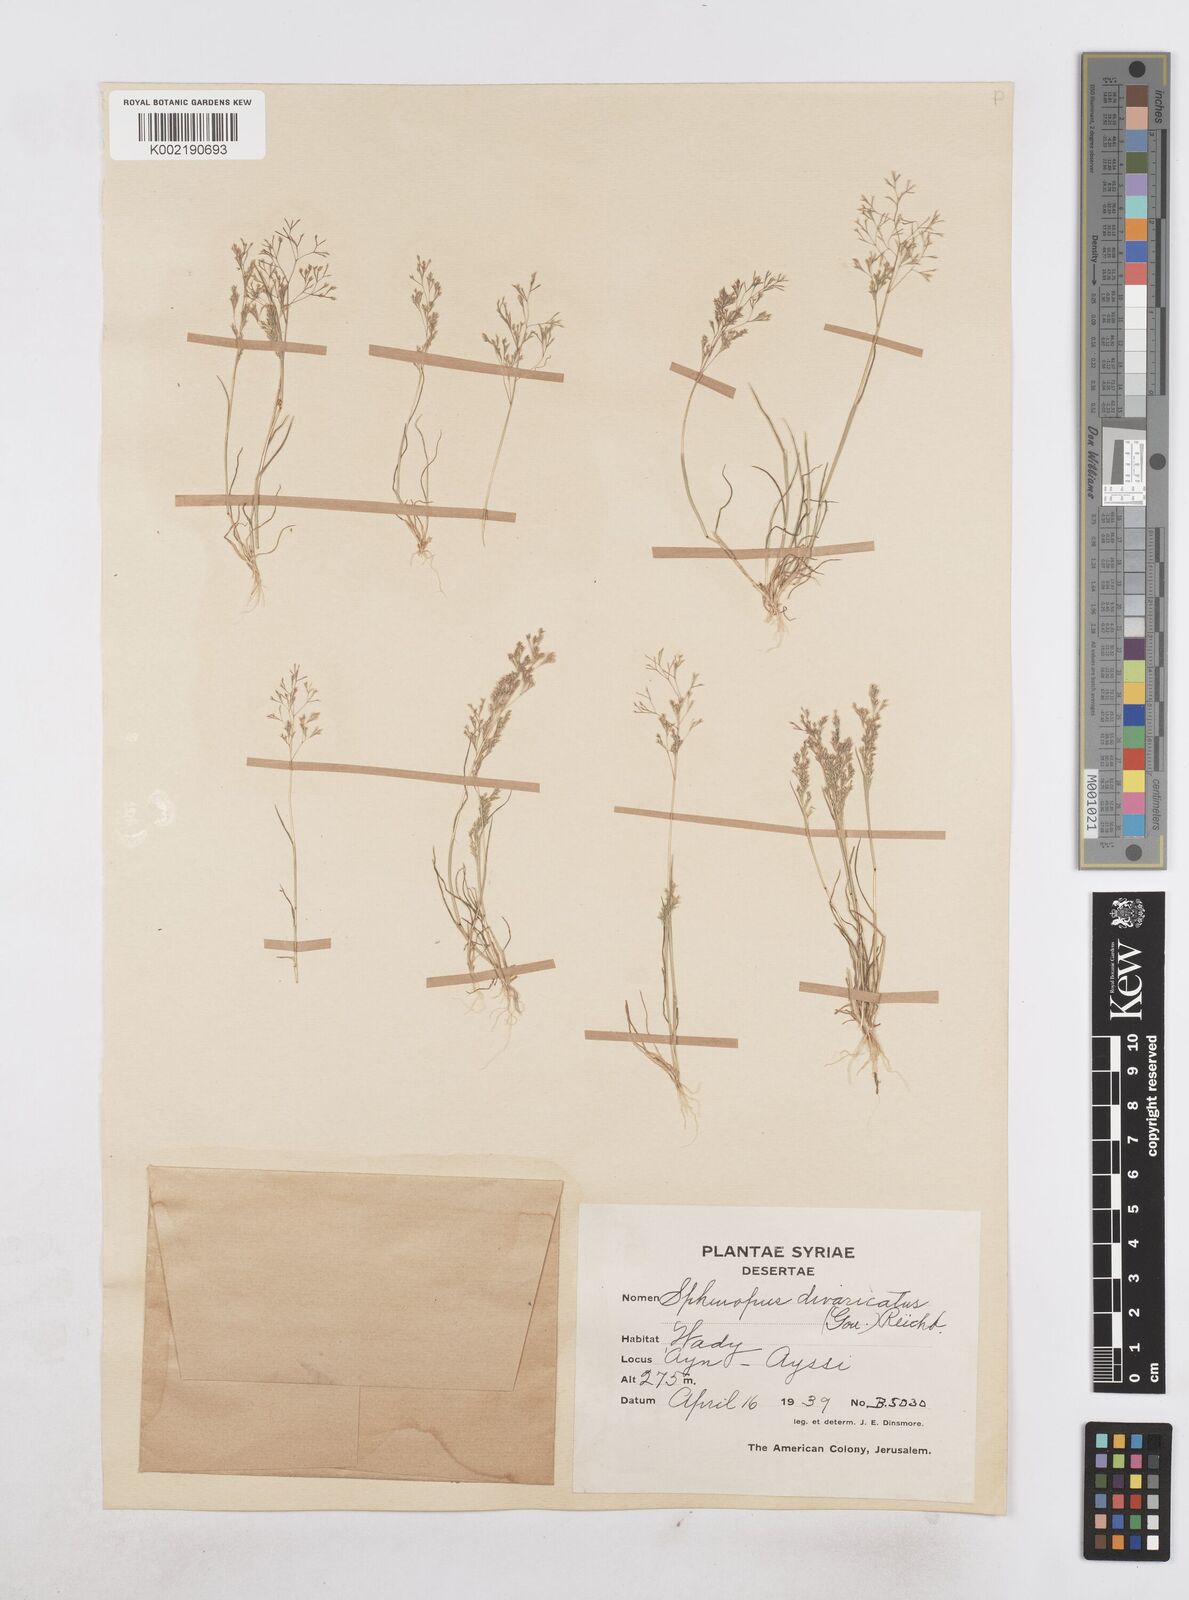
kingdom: Plantae
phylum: Tracheophyta
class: Liliopsida
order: Poales
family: Poaceae
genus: Sphenopus
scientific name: Sphenopus divaricatus
